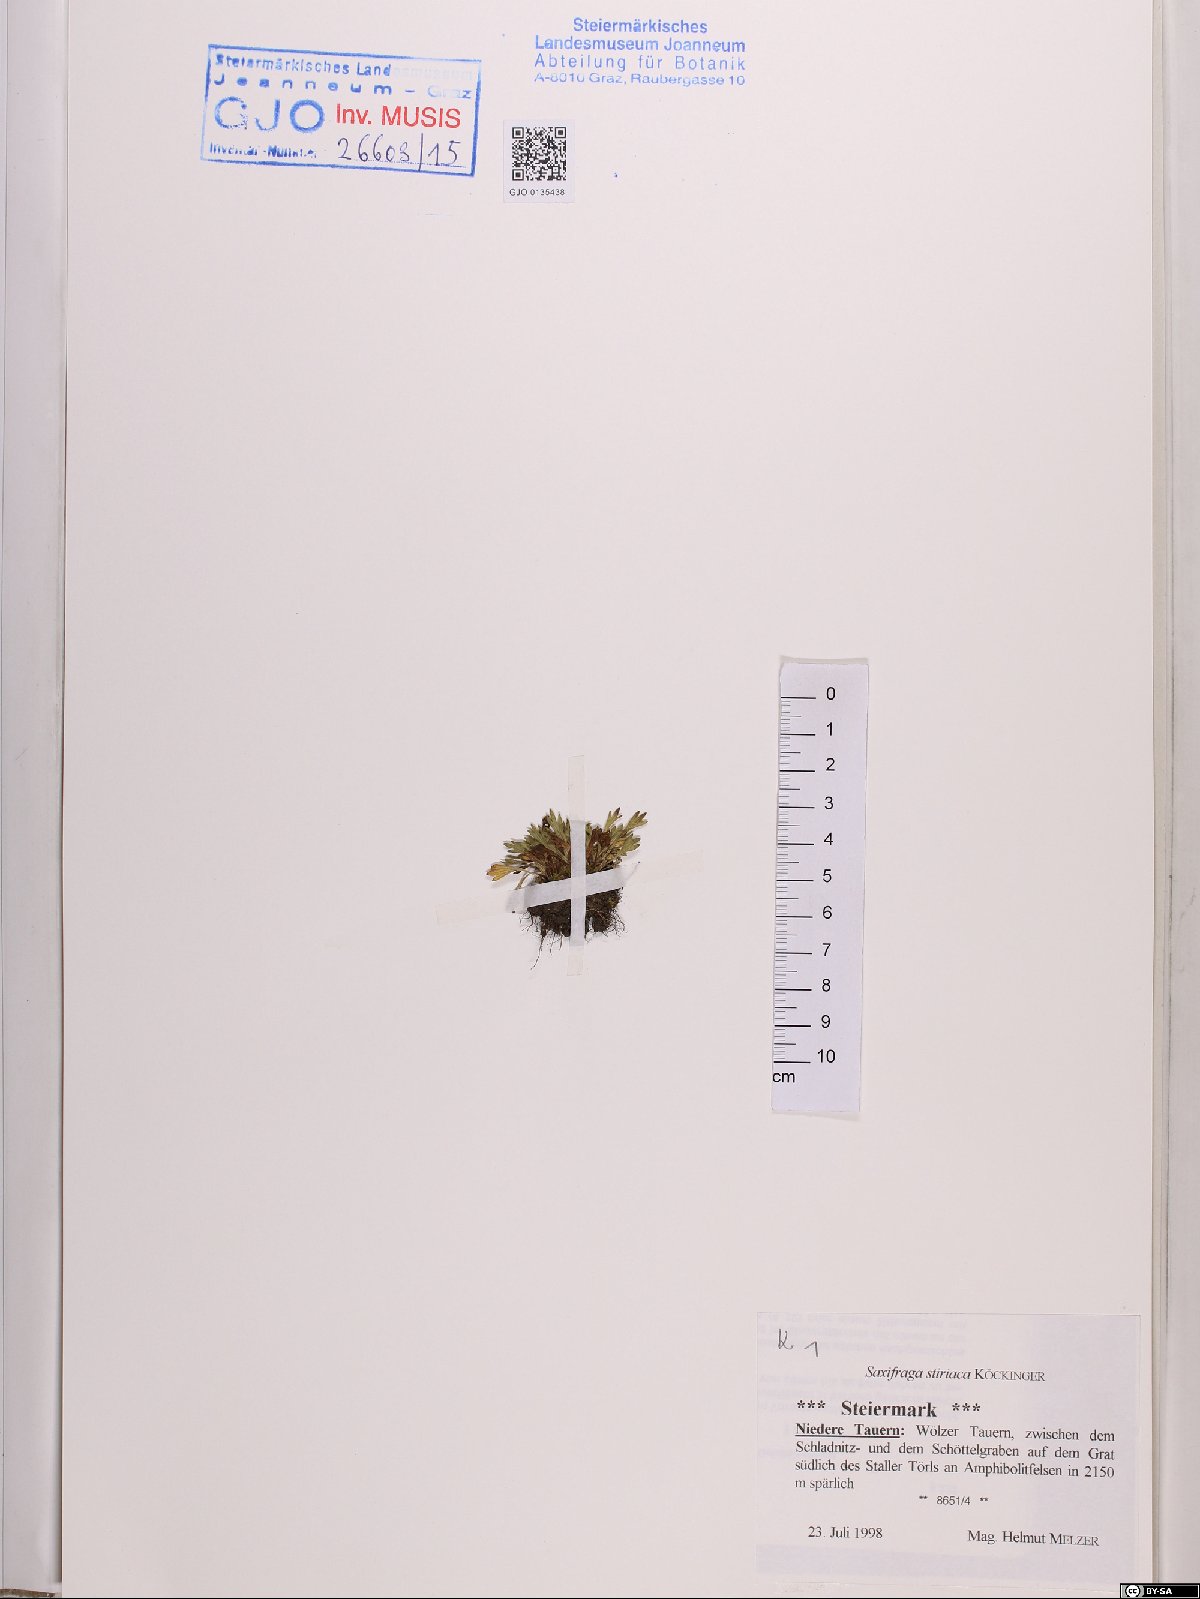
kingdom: Plantae
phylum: Tracheophyta
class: Magnoliopsida
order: Saxifragales
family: Saxifragaceae
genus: Saxifraga
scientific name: Saxifraga styriaca
